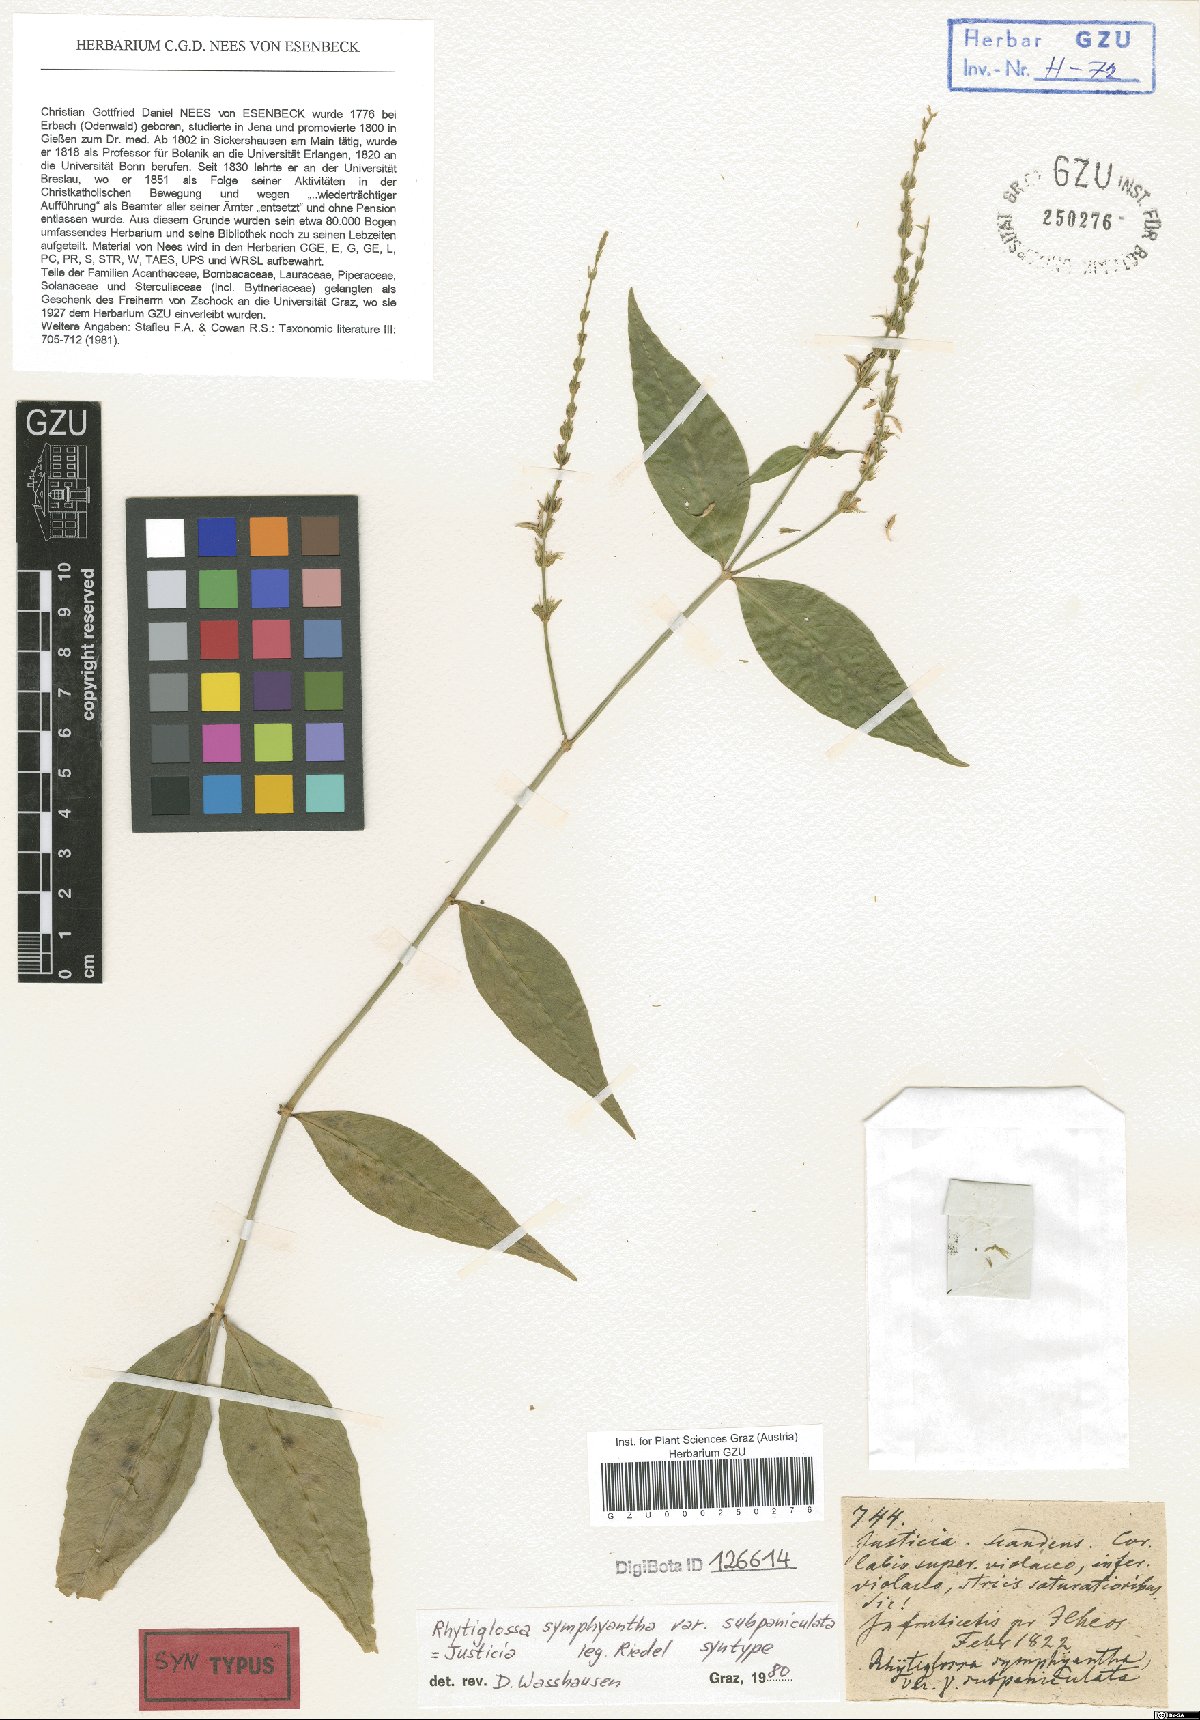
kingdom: Plantae
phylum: Tracheophyta
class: Magnoliopsida
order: Lamiales
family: Acanthaceae
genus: Justicia
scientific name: Justicia symphyantha
